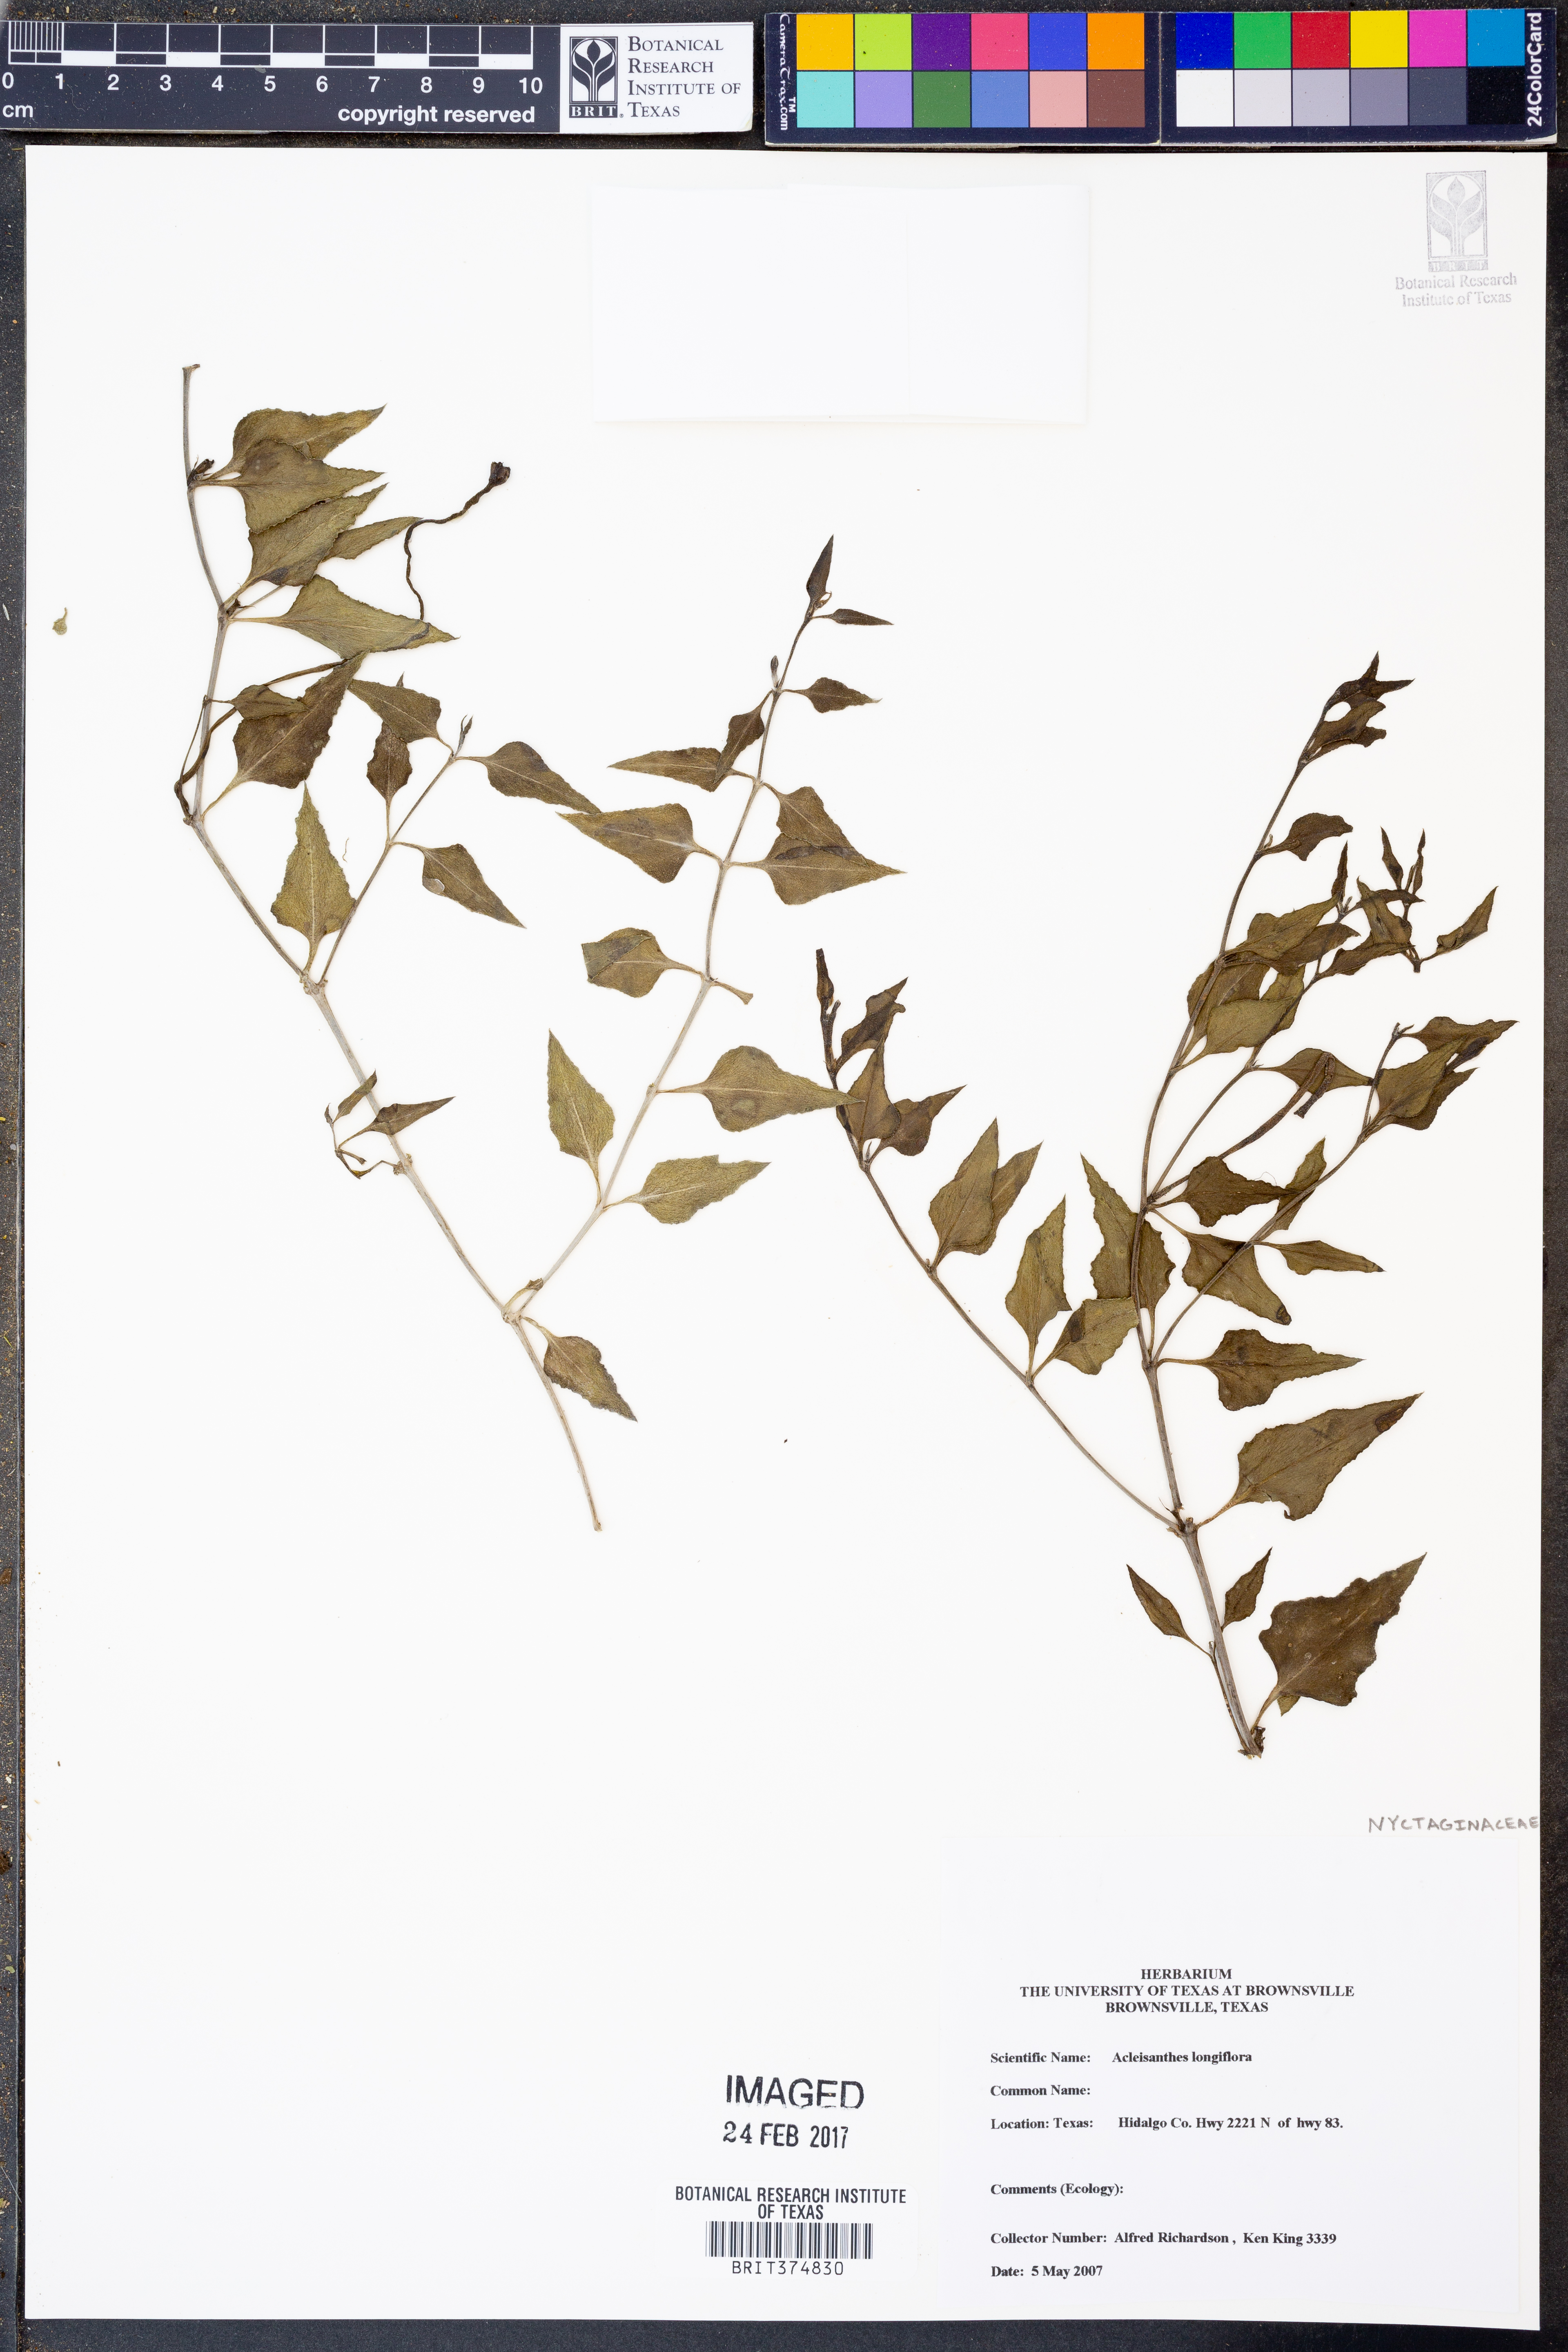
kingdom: Plantae
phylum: Tracheophyta
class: Magnoliopsida
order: Caryophyllales
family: Nyctaginaceae
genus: Acleisanthes
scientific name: Acleisanthes longiflora
